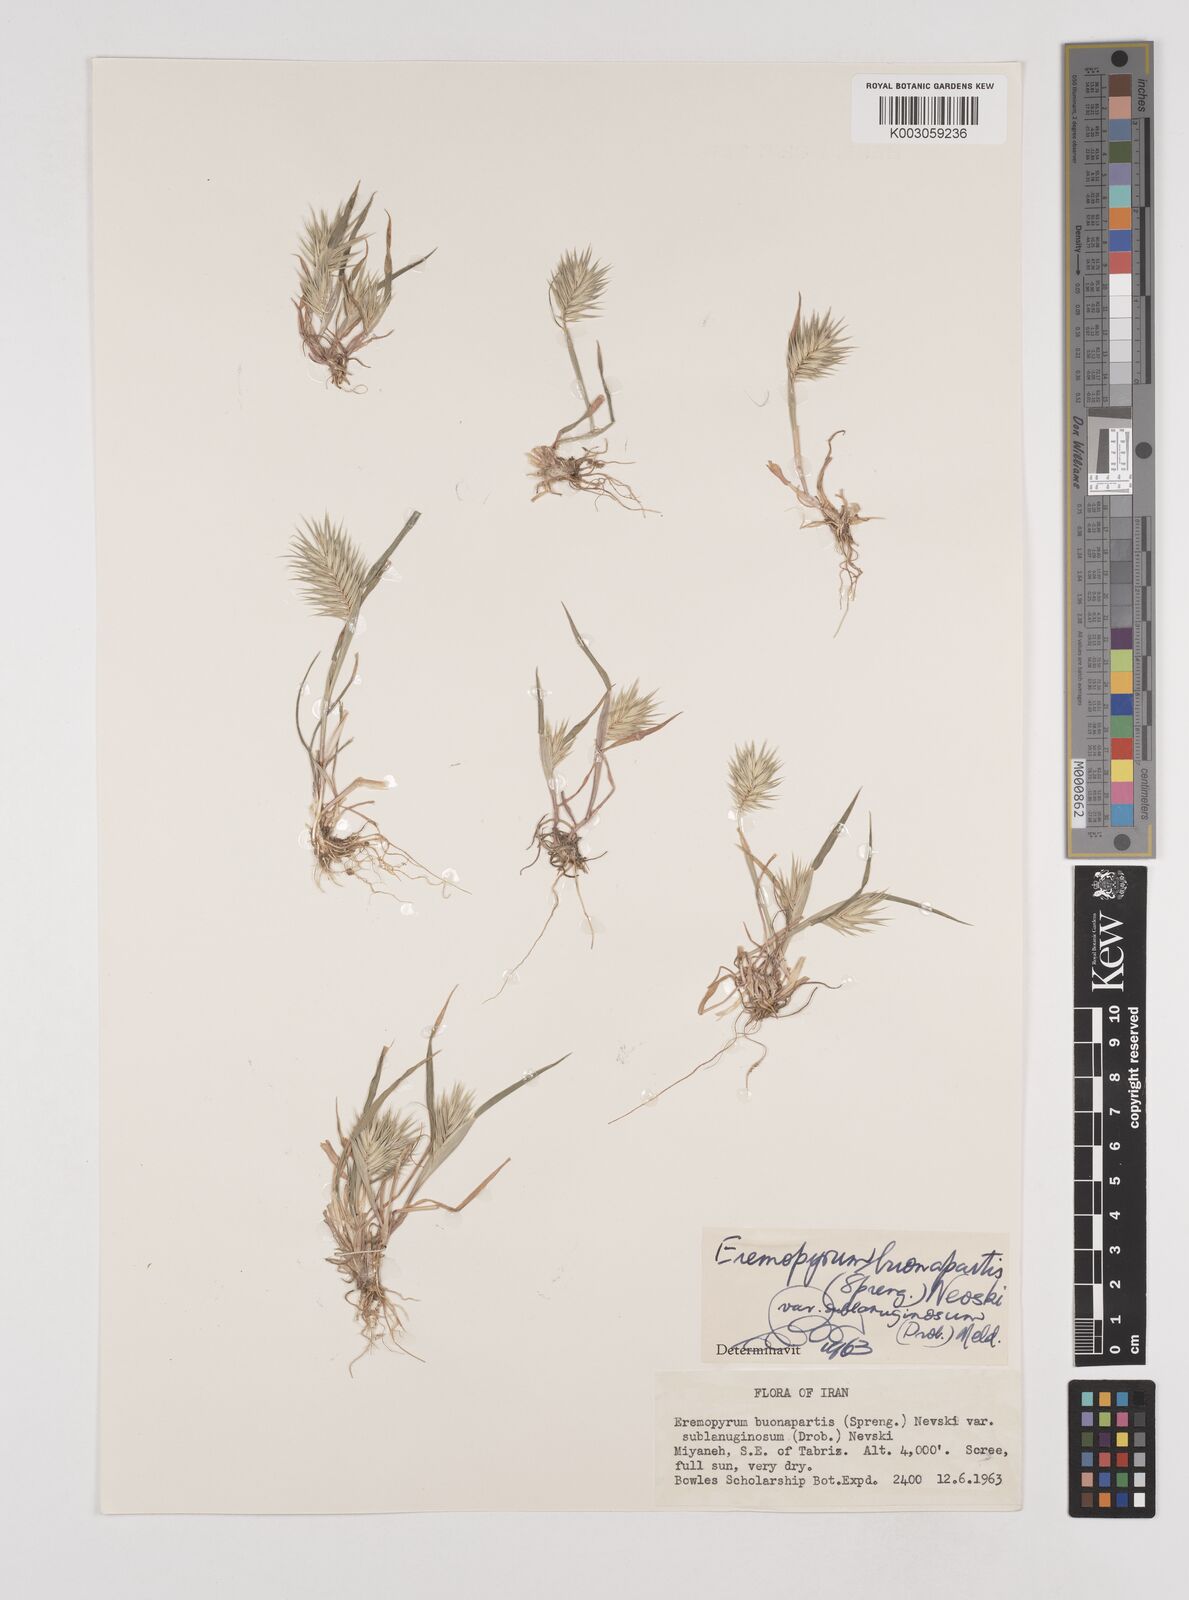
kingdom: Plantae
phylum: Tracheophyta
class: Liliopsida
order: Poales
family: Poaceae
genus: Eremopyrum
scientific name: Eremopyrum bonaepartis
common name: Tapertip false wheatgrass
